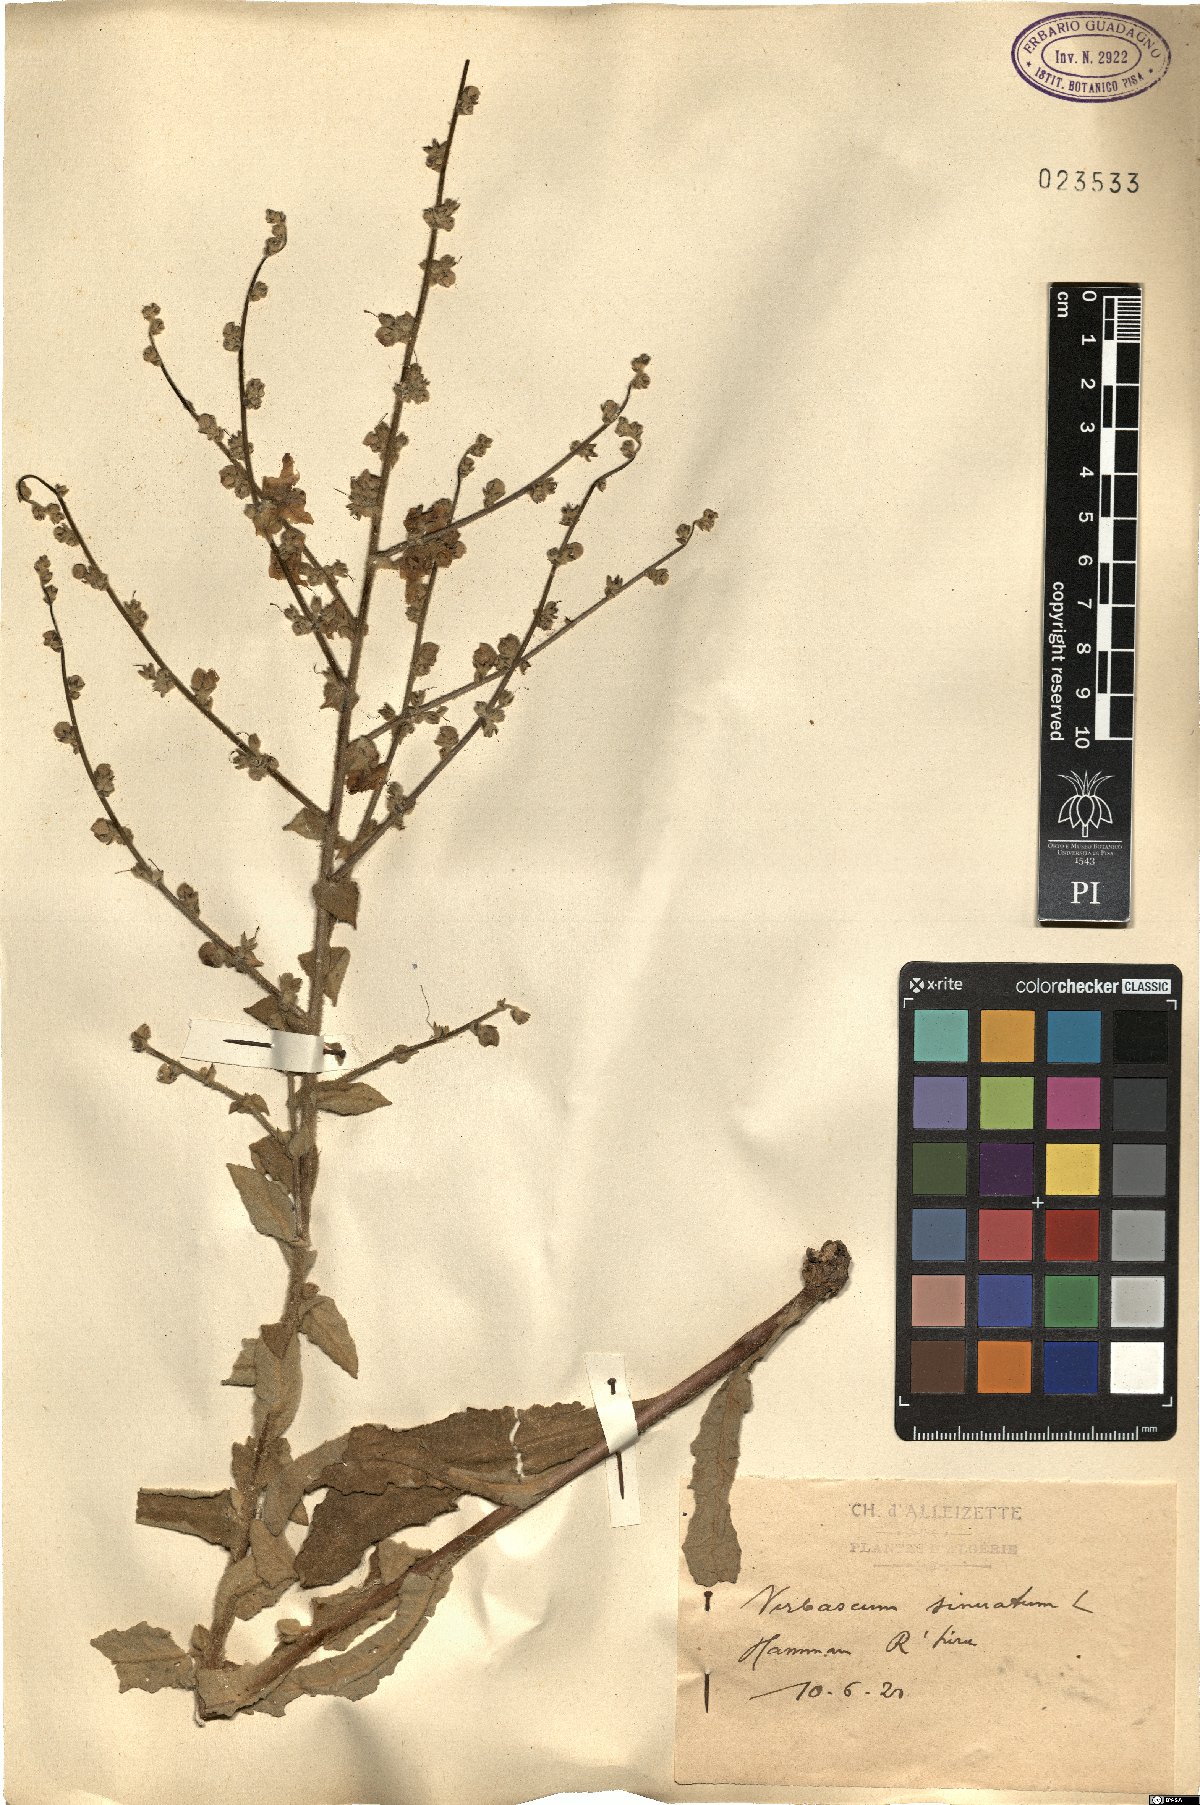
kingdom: Plantae
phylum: Tracheophyta
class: Magnoliopsida
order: Lamiales
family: Scrophulariaceae
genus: Verbascum
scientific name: Verbascum sinuatum
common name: Wavyleaf mullein
